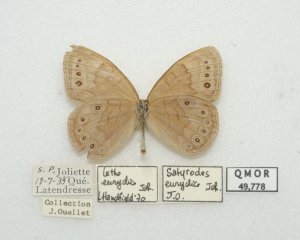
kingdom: Animalia
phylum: Arthropoda
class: Insecta
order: Lepidoptera
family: Nymphalidae
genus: Lethe
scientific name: Lethe eurydice
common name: Eyed Brown
